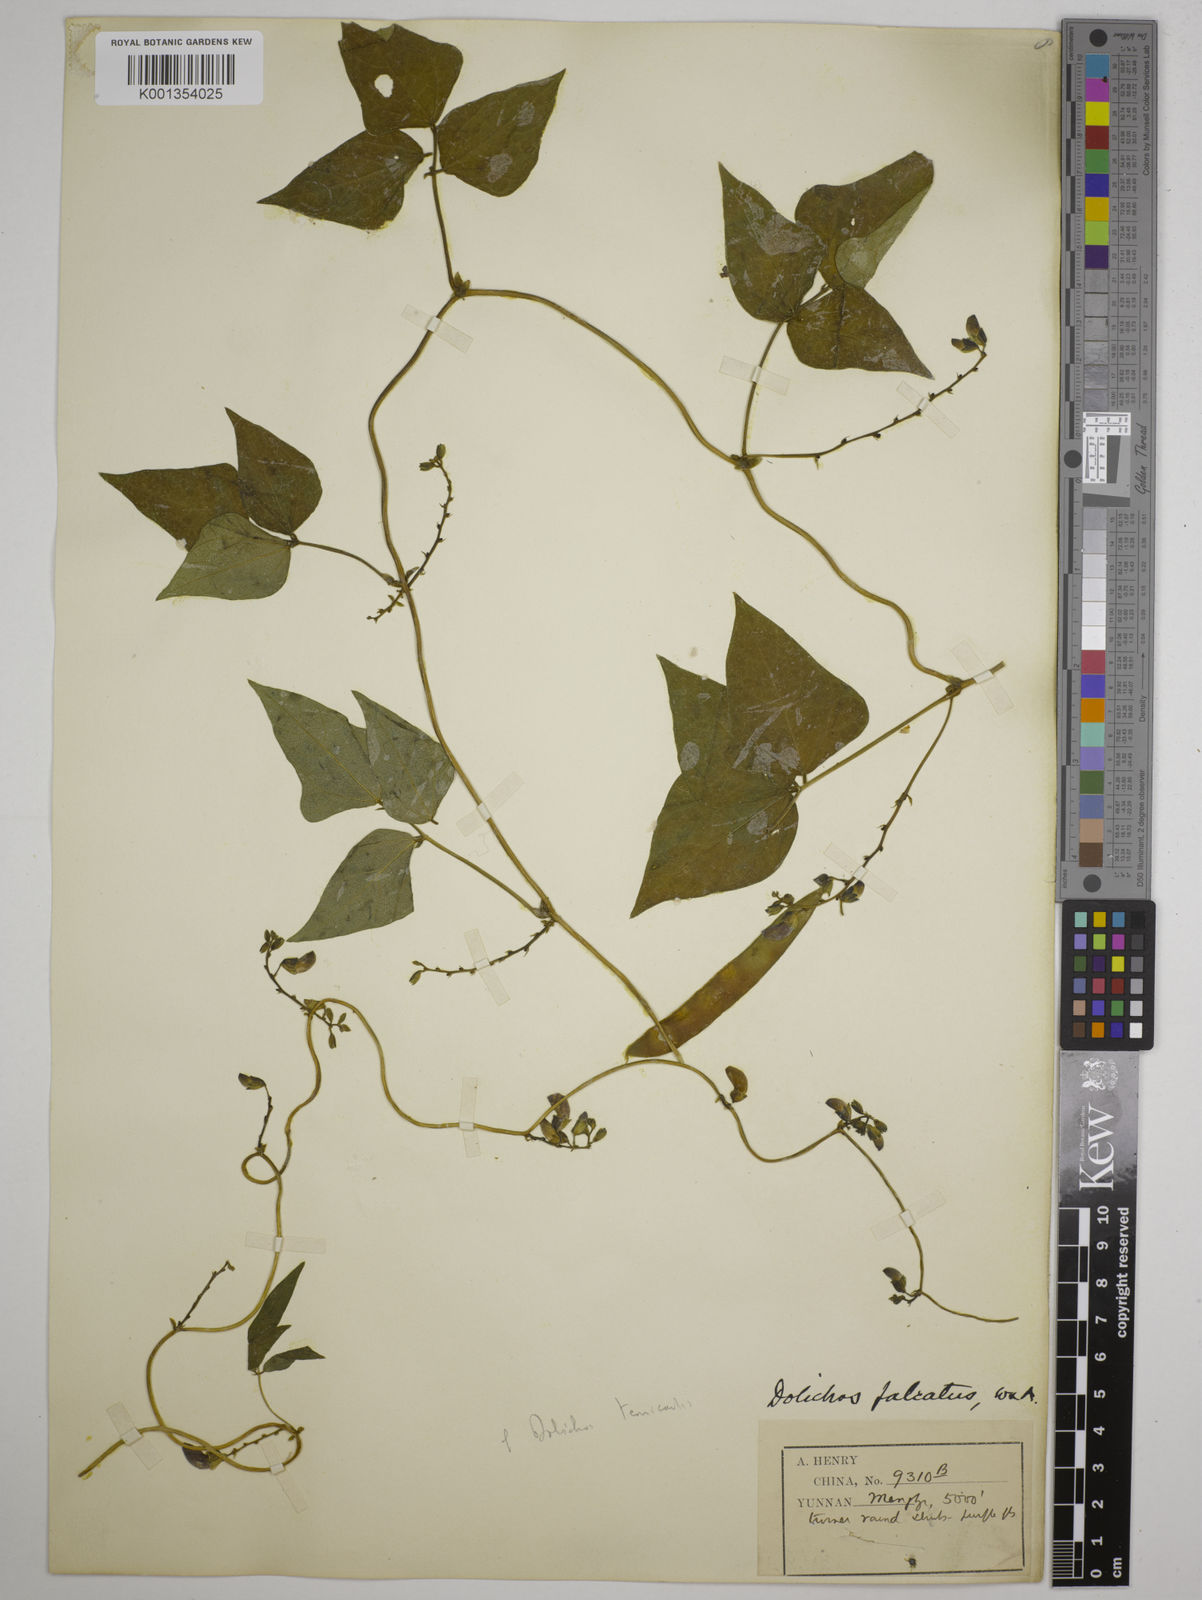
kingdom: Plantae
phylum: Tracheophyta
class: Magnoliopsida
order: Fabales
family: Fabaceae
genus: Dolichos
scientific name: Dolichos trilobus
